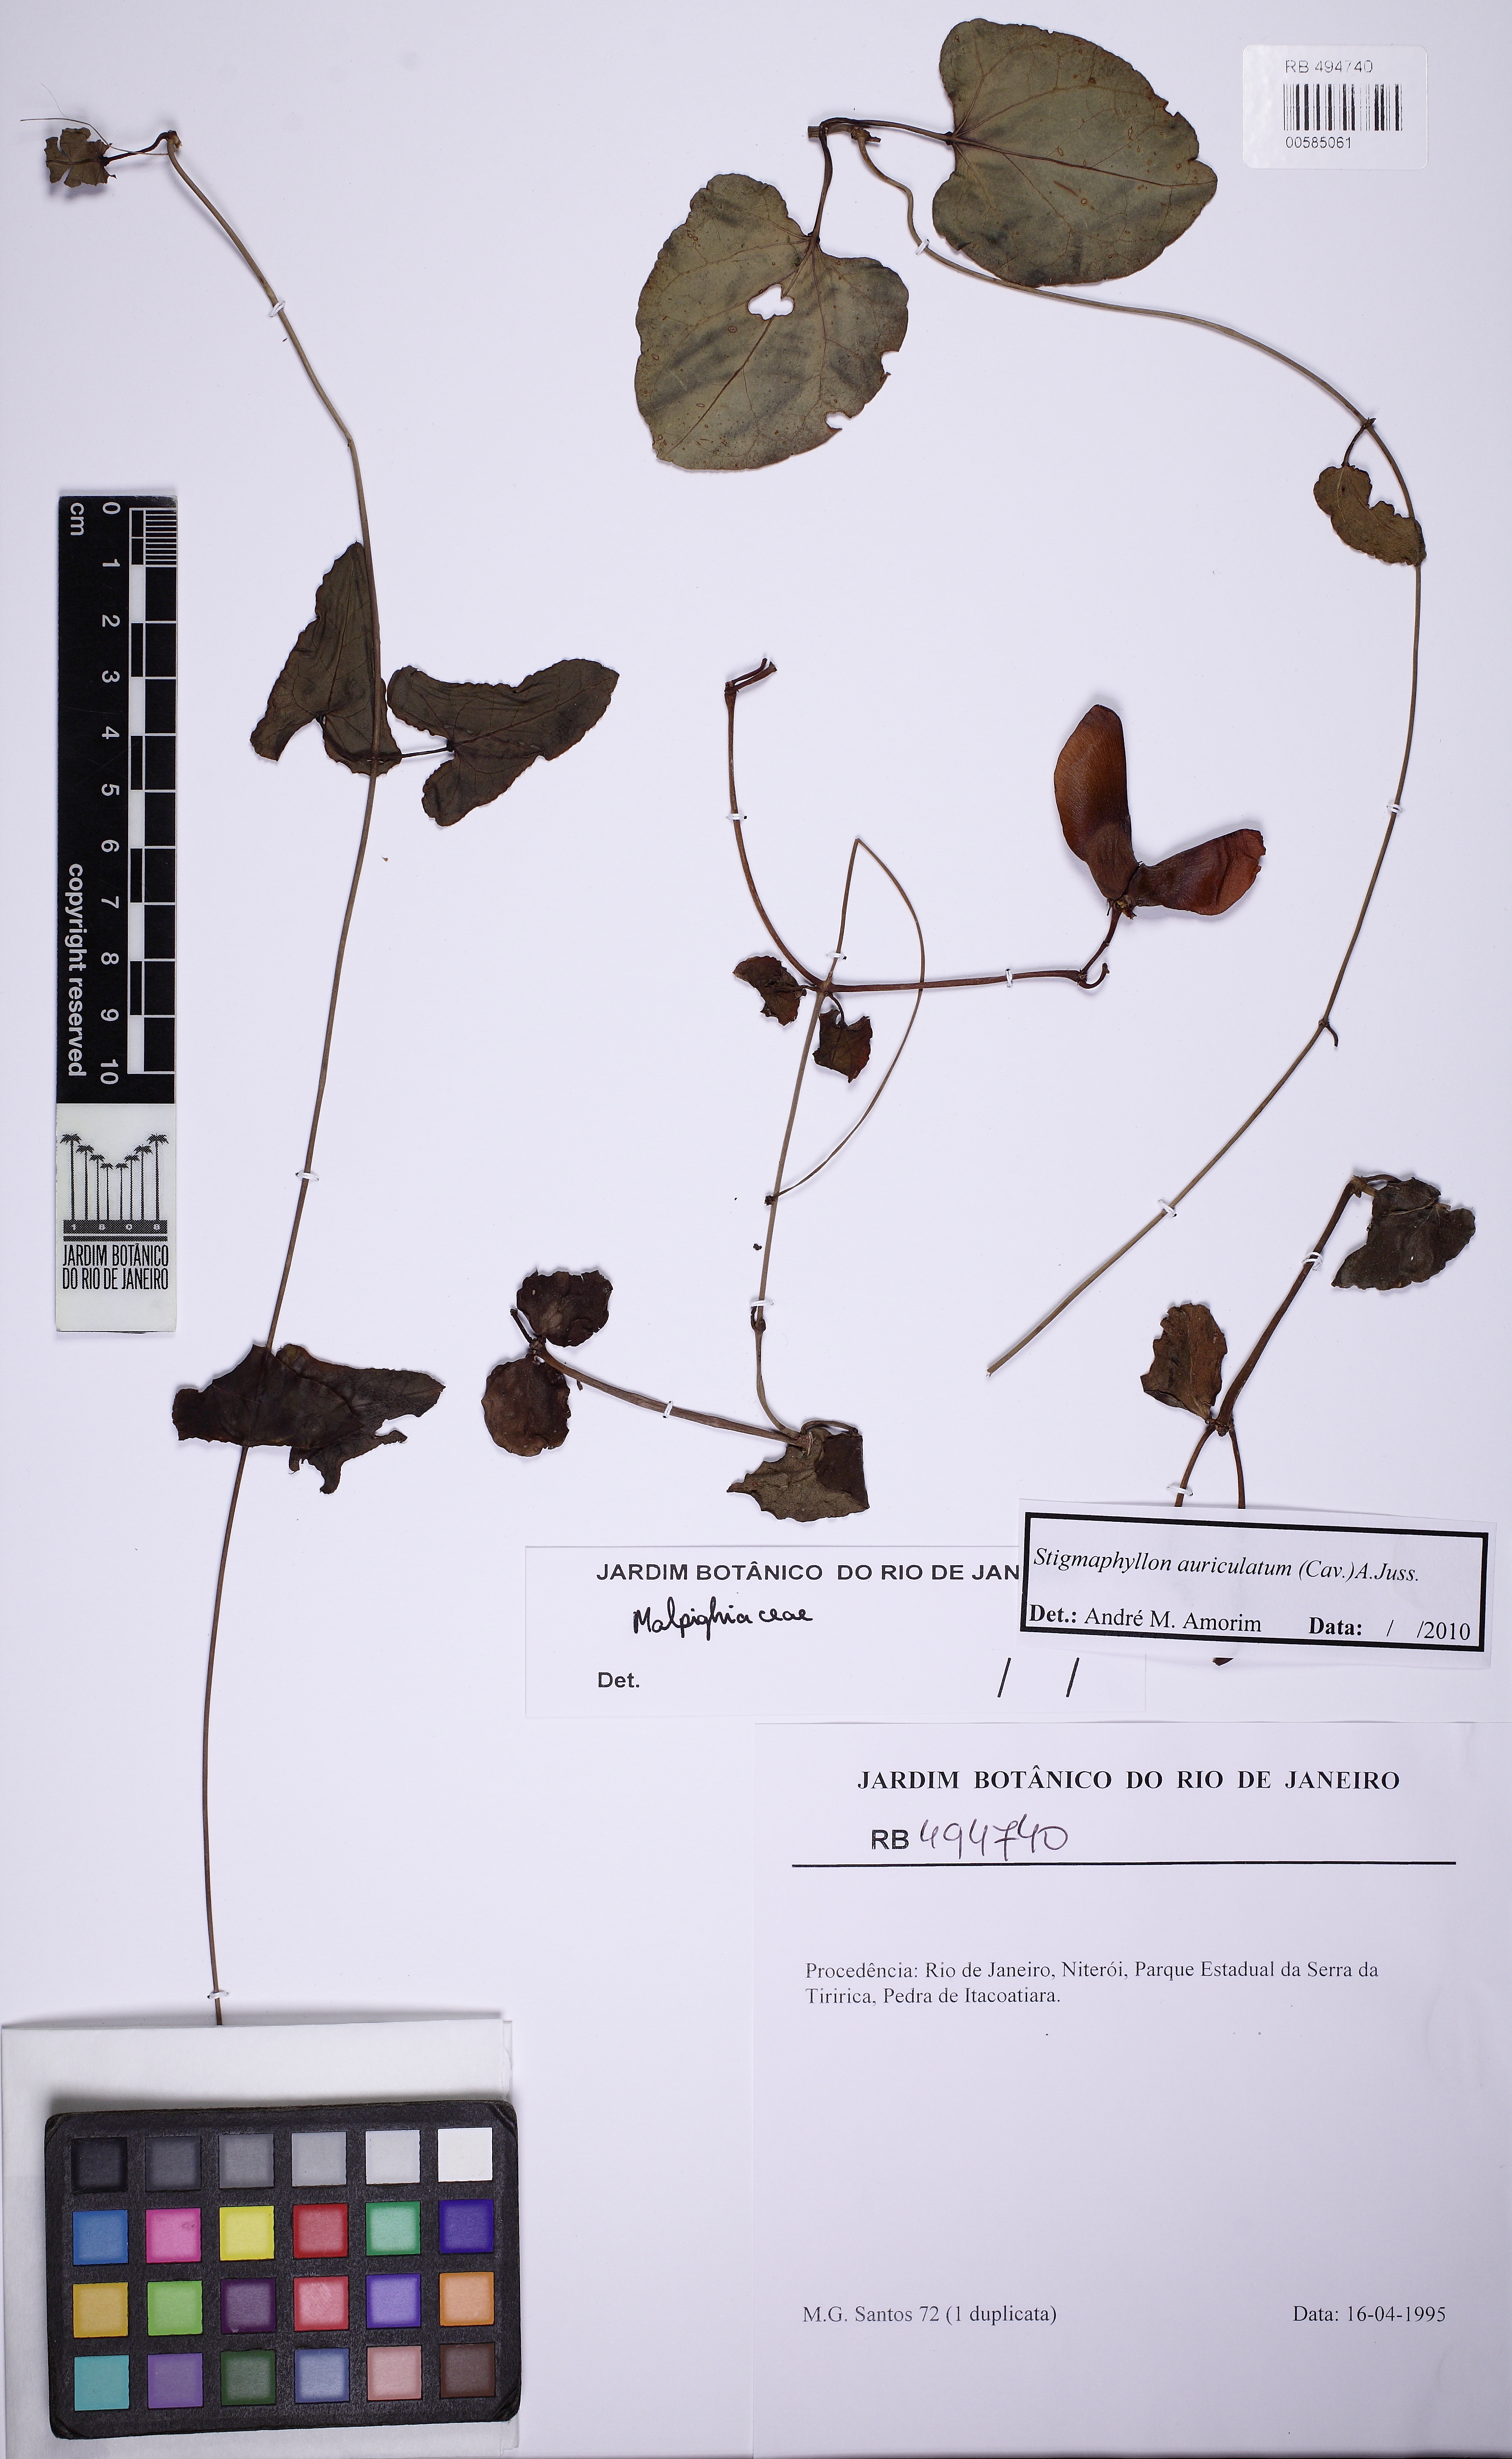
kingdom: Plantae
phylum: Tracheophyta
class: Magnoliopsida
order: Malpighiales
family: Malpighiaceae
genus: Stigmaphyllon
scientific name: Stigmaphyllon auriculatum
